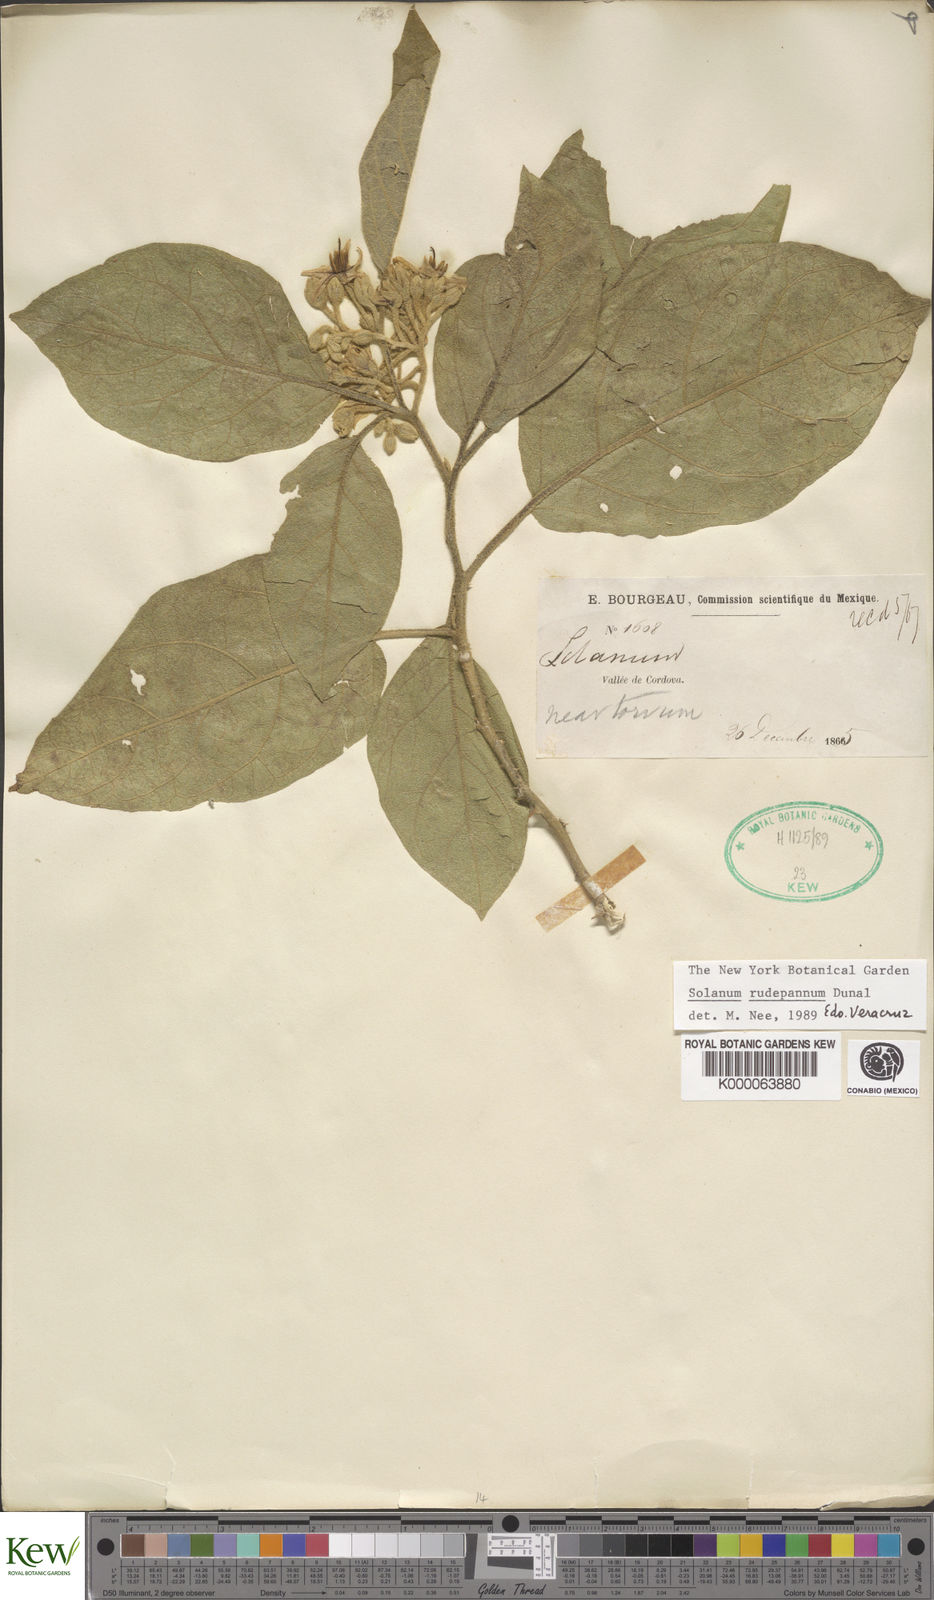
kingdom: Plantae
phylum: Tracheophyta
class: Magnoliopsida
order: Solanales
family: Solanaceae
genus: Solanum
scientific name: Solanum rude-pannum
